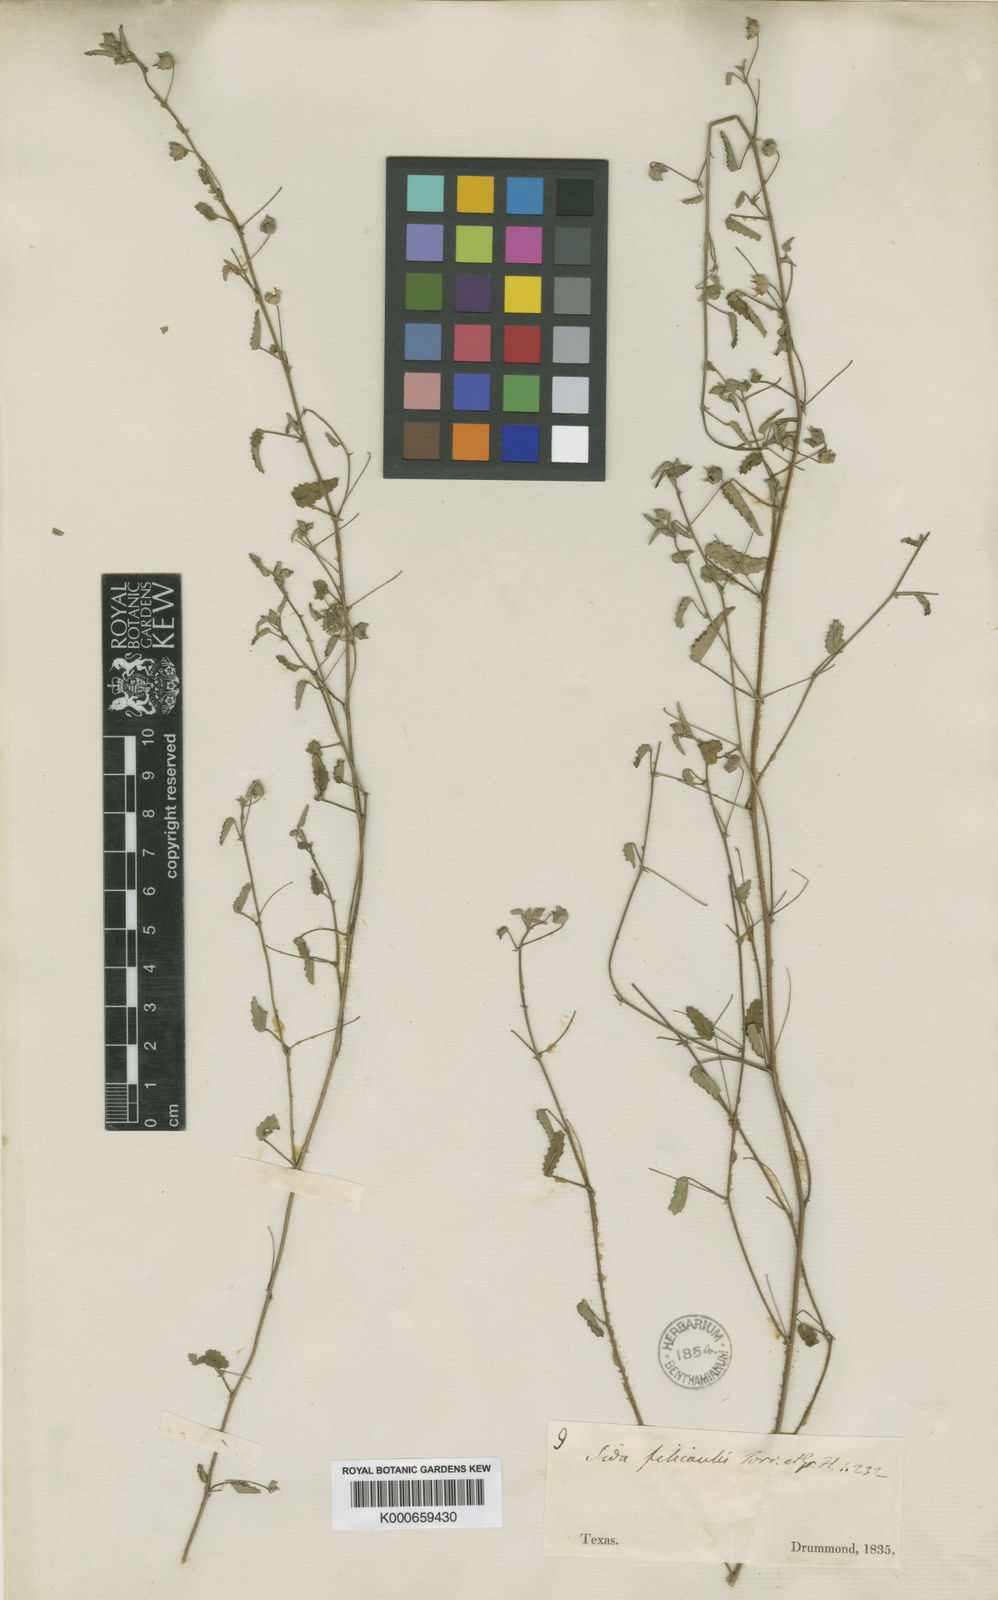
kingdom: Plantae
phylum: Tracheophyta
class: Magnoliopsida
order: Malvales
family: Malvaceae
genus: Sida
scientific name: Sida abutilifolia
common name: Spreading fanpetals
